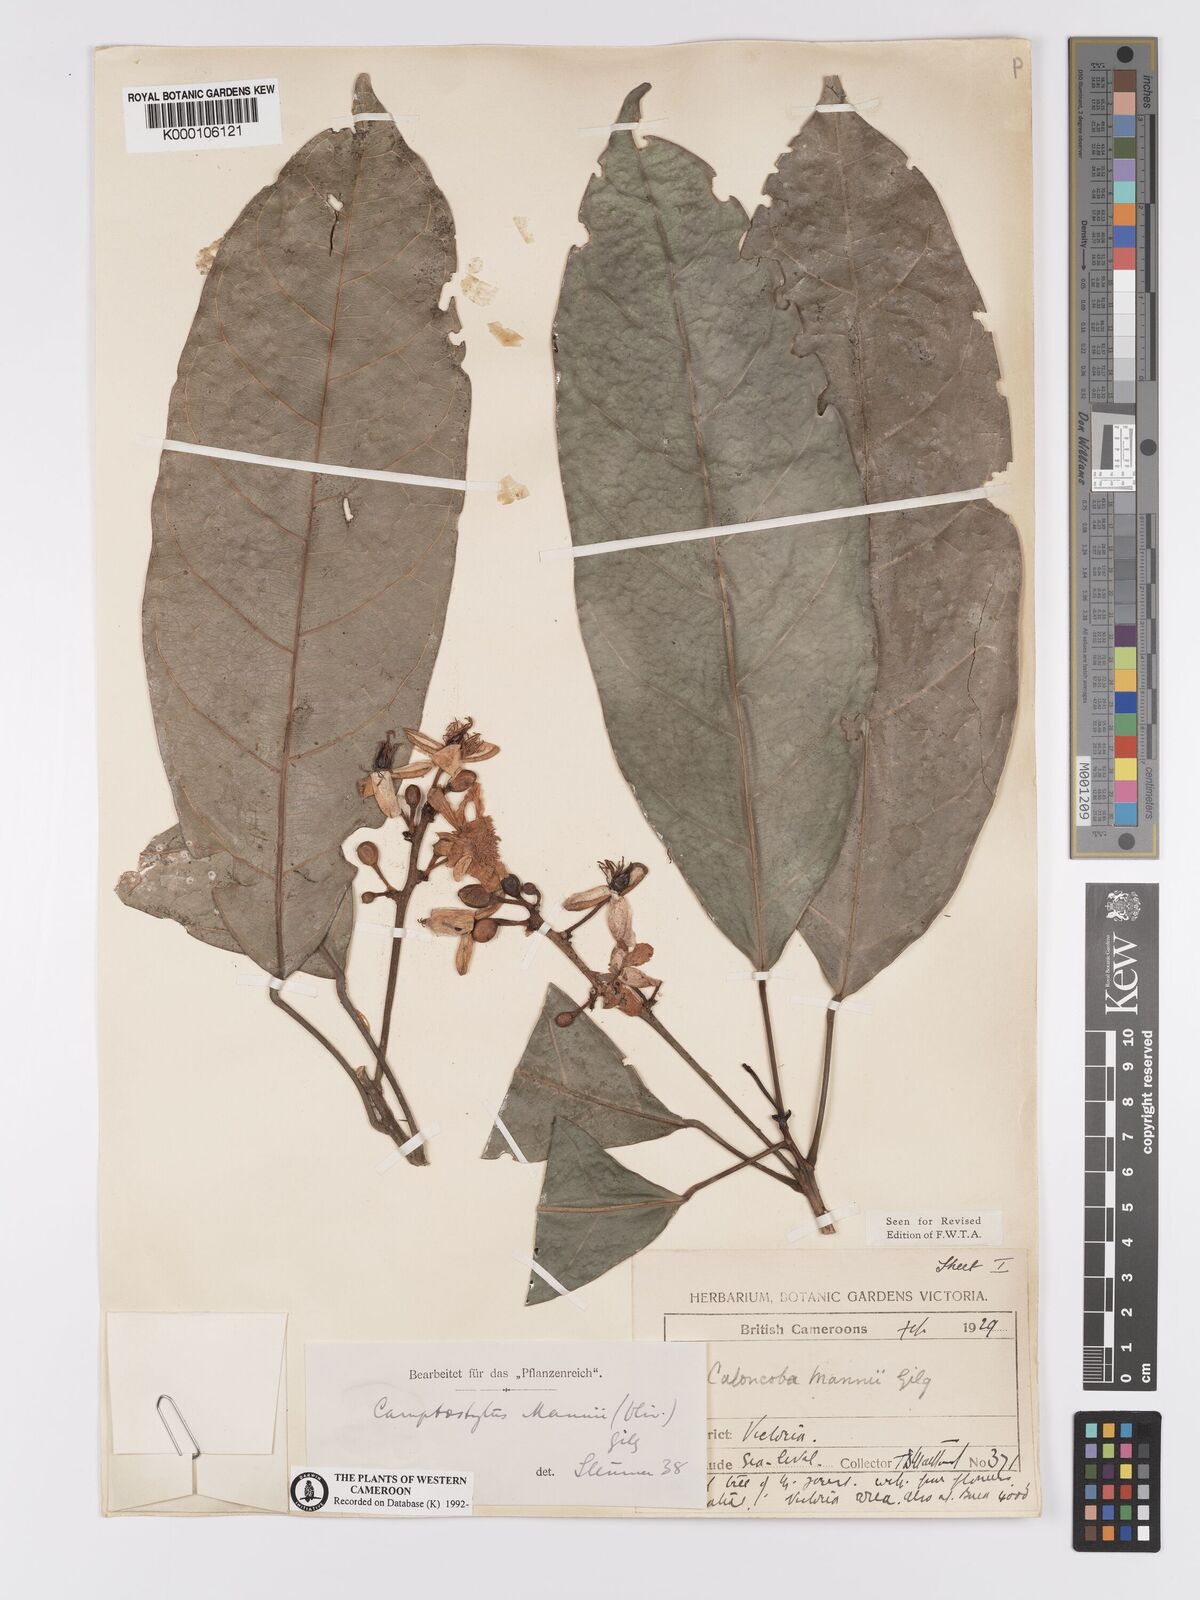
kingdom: Plantae
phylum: Tracheophyta
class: Magnoliopsida
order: Malpighiales
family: Achariaceae
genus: Camptostylus
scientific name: Camptostylus mannii
